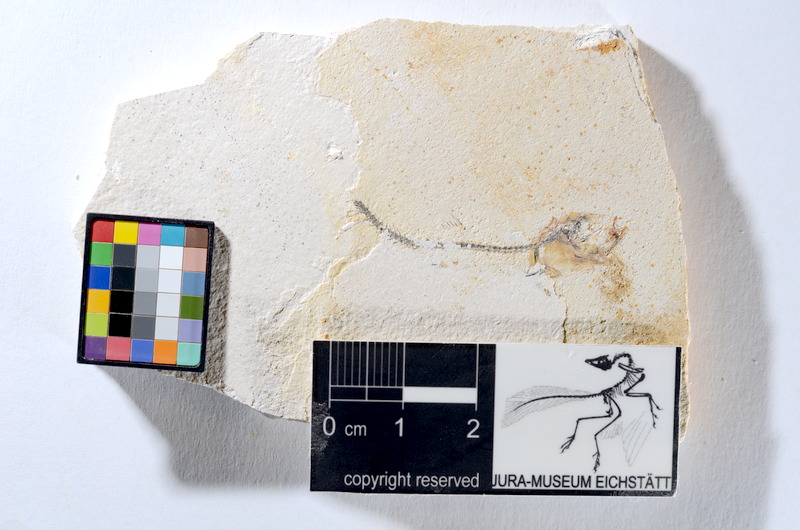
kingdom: Animalia
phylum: Chordata
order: Salmoniformes
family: Orthogonikleithridae
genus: Orthogonikleithrus
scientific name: Orthogonikleithrus hoelli
